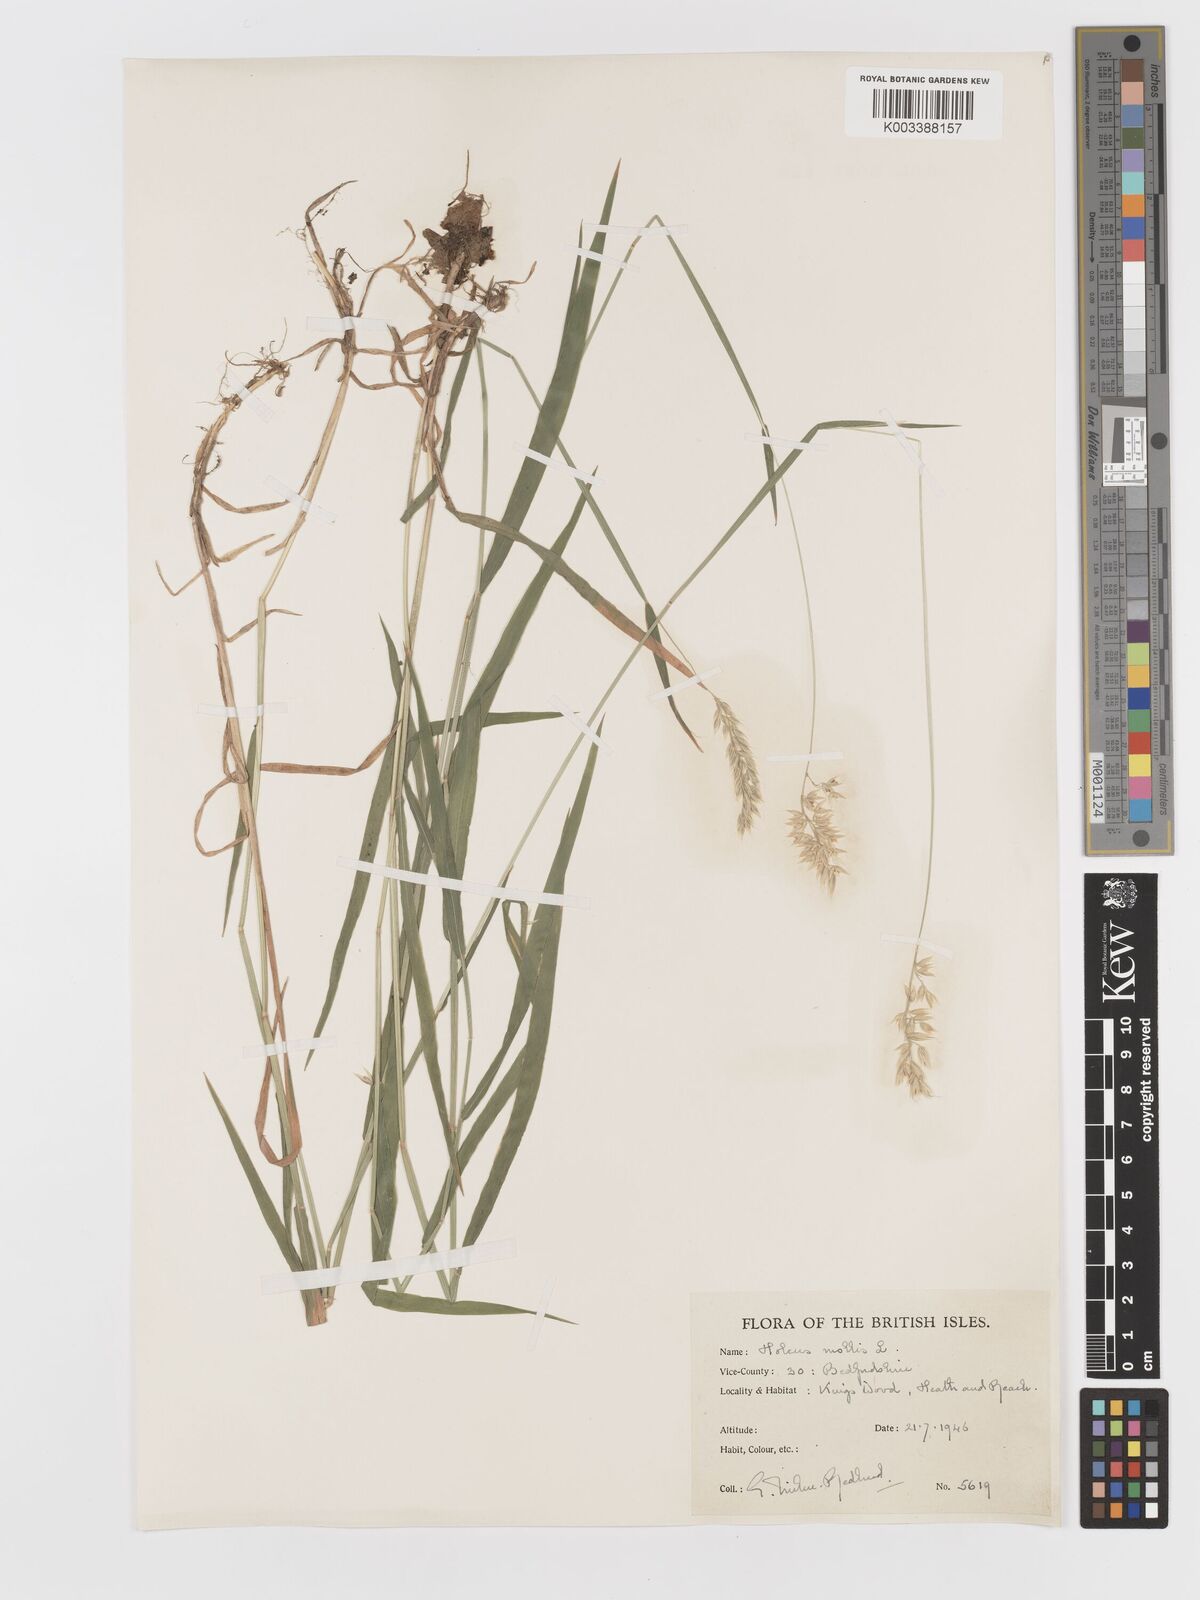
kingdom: Plantae
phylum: Tracheophyta
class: Liliopsida
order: Poales
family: Poaceae
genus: Holcus
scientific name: Holcus mollis
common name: Creeping velvetgrass
